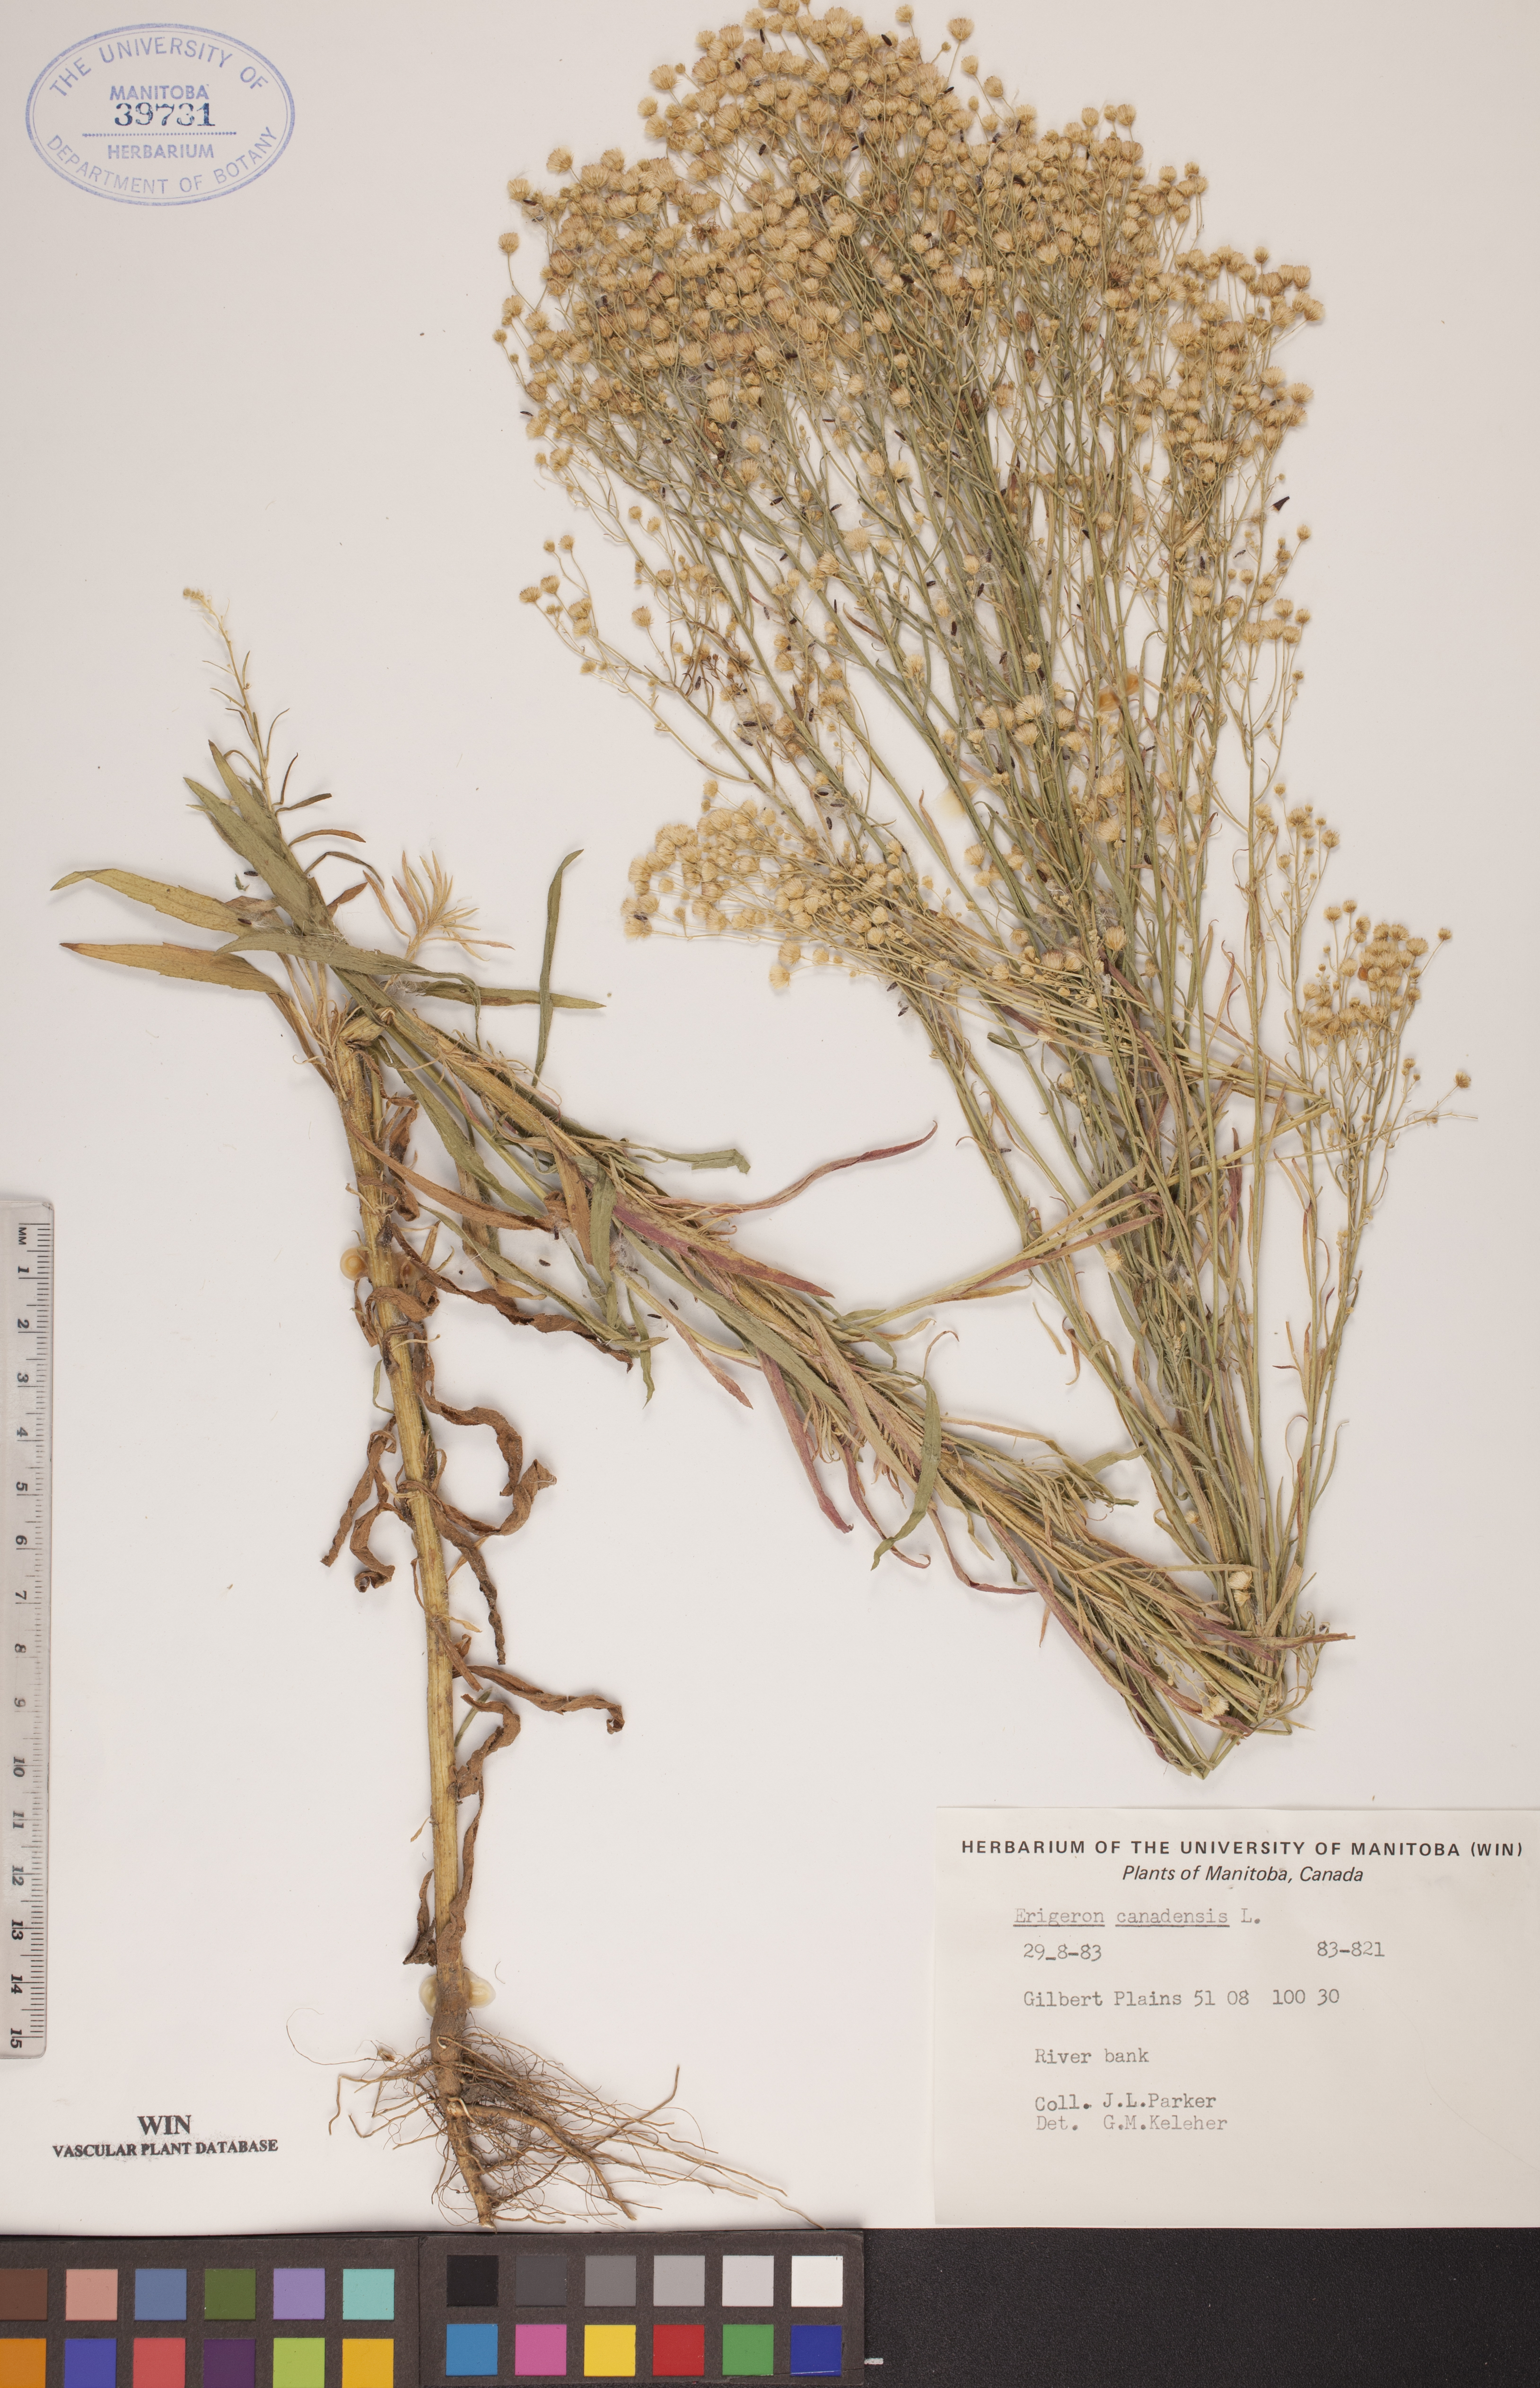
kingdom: Plantae
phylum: Tracheophyta
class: Magnoliopsida
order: Asterales
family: Asteraceae
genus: Erigeron
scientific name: Erigeron canadensis
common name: Canadian fleabane
